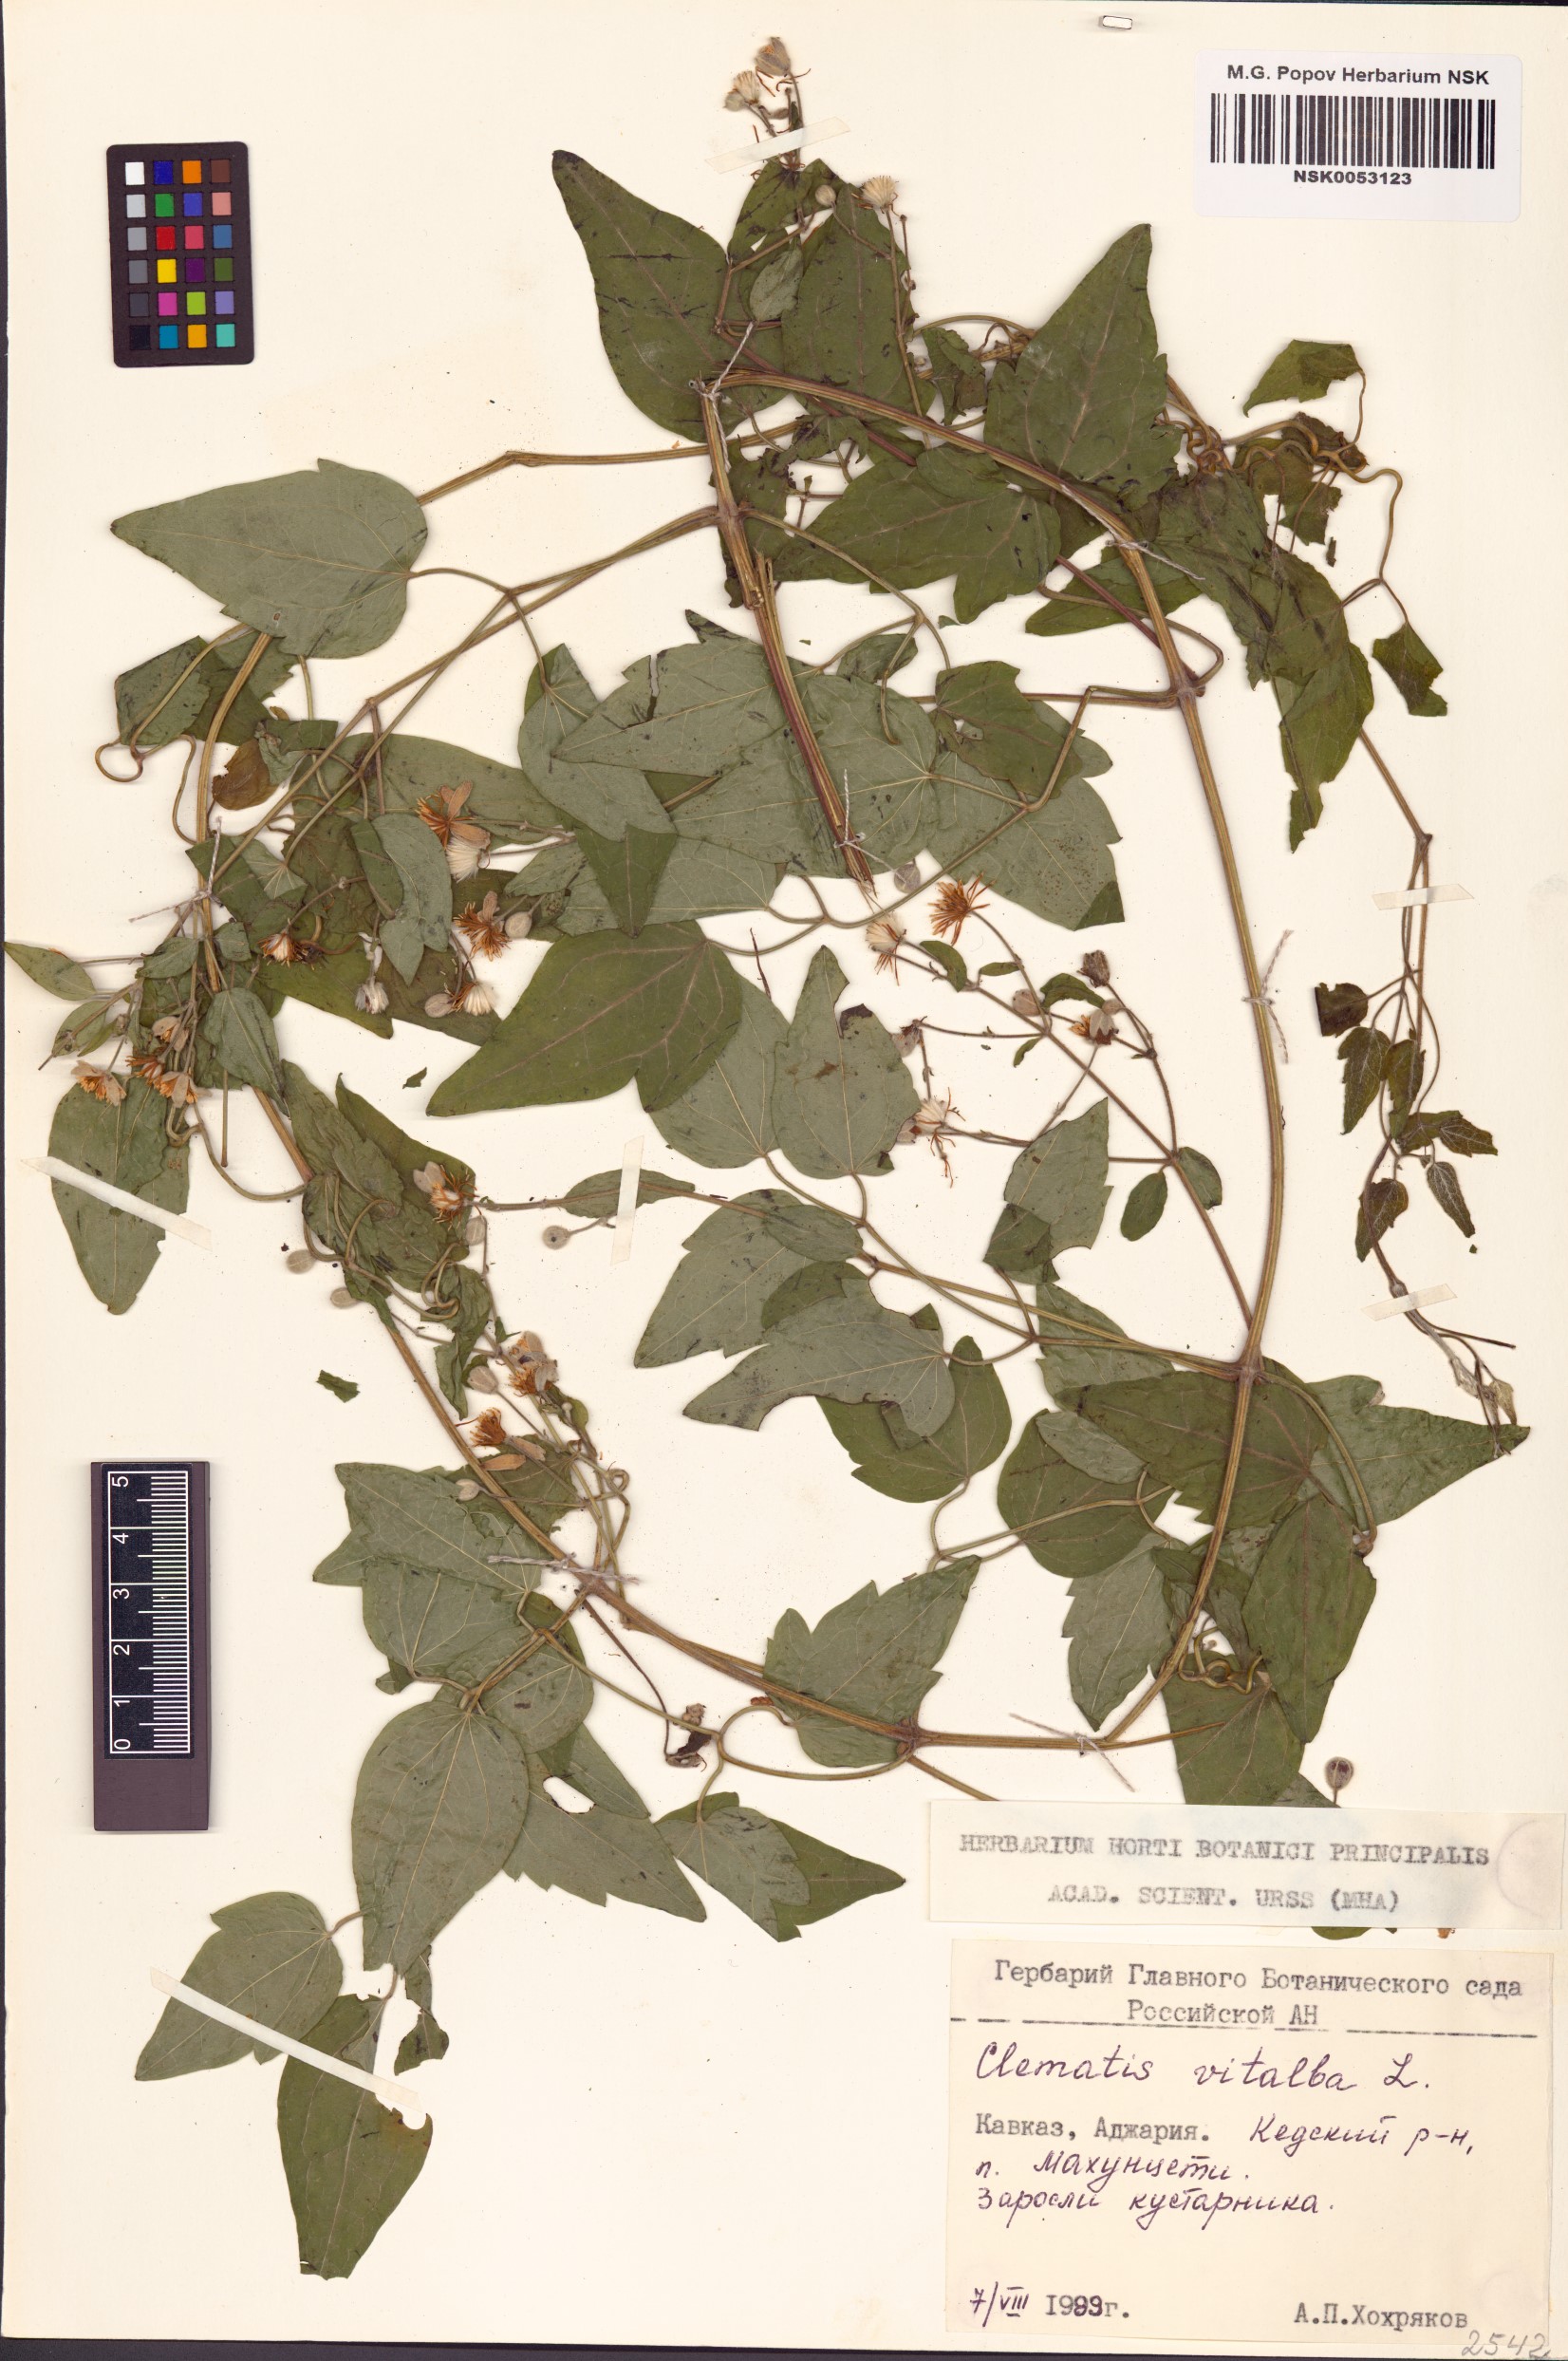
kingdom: Plantae
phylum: Tracheophyta
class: Magnoliopsida
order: Ranunculales
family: Ranunculaceae
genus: Clematis
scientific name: Clematis vitalba
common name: Evergreen clematis
